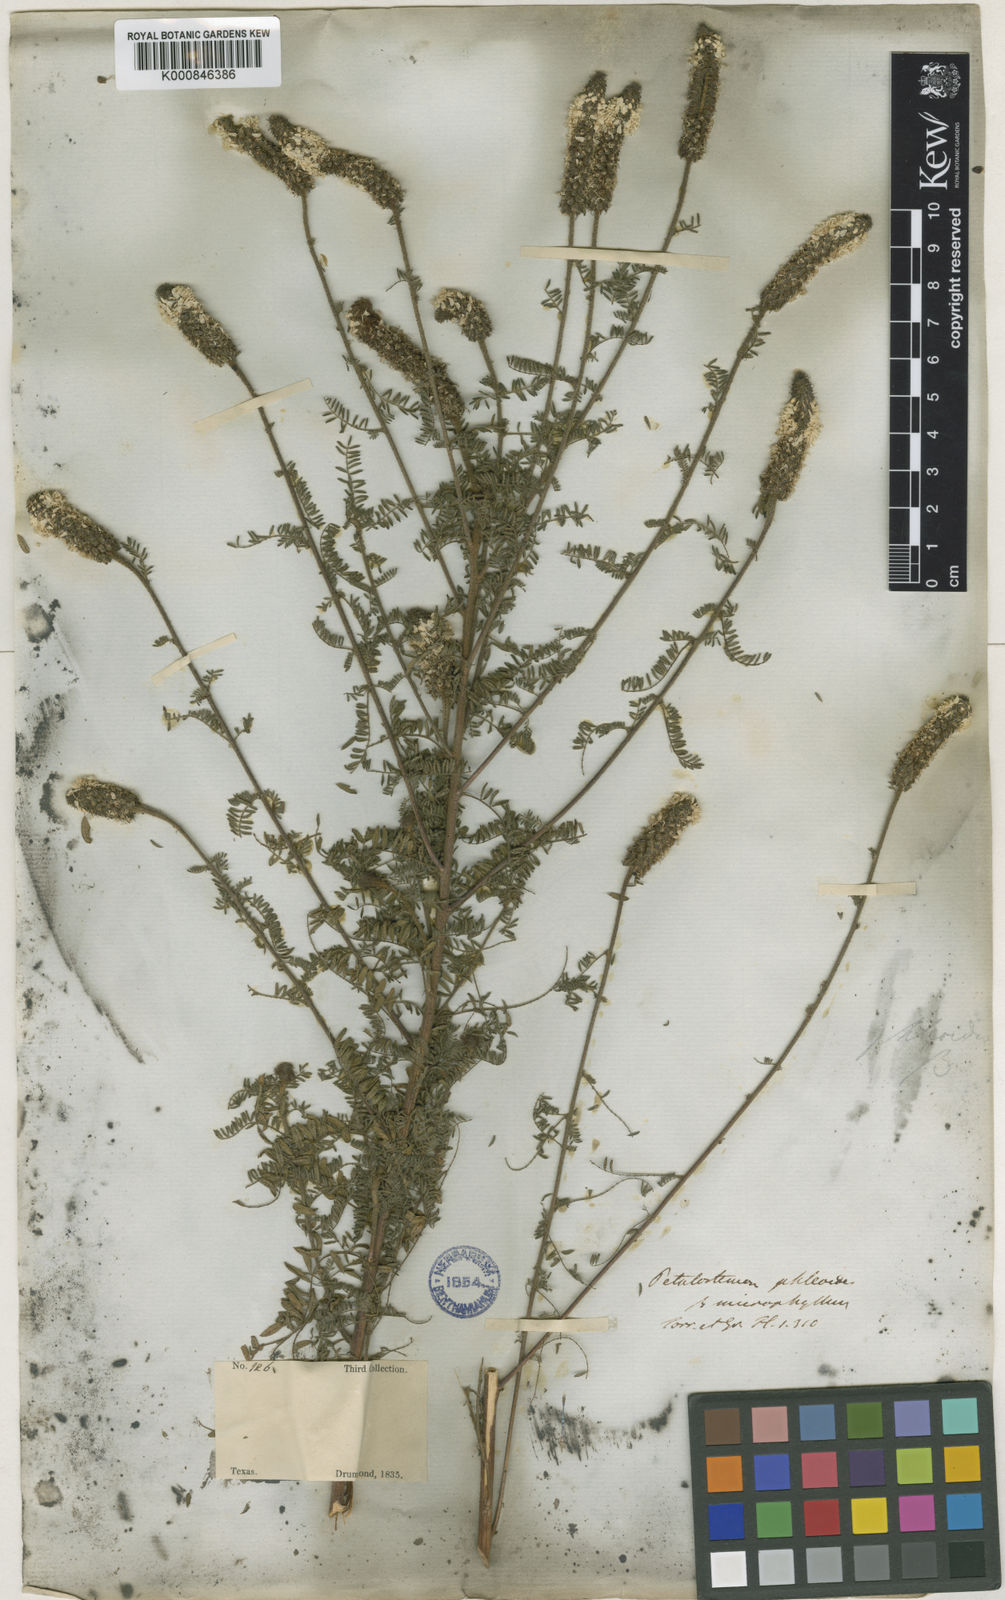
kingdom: Plantae
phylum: Tracheophyta
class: Magnoliopsida
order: Fabales
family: Fabaceae
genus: Dalea
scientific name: Dalea phleoides
